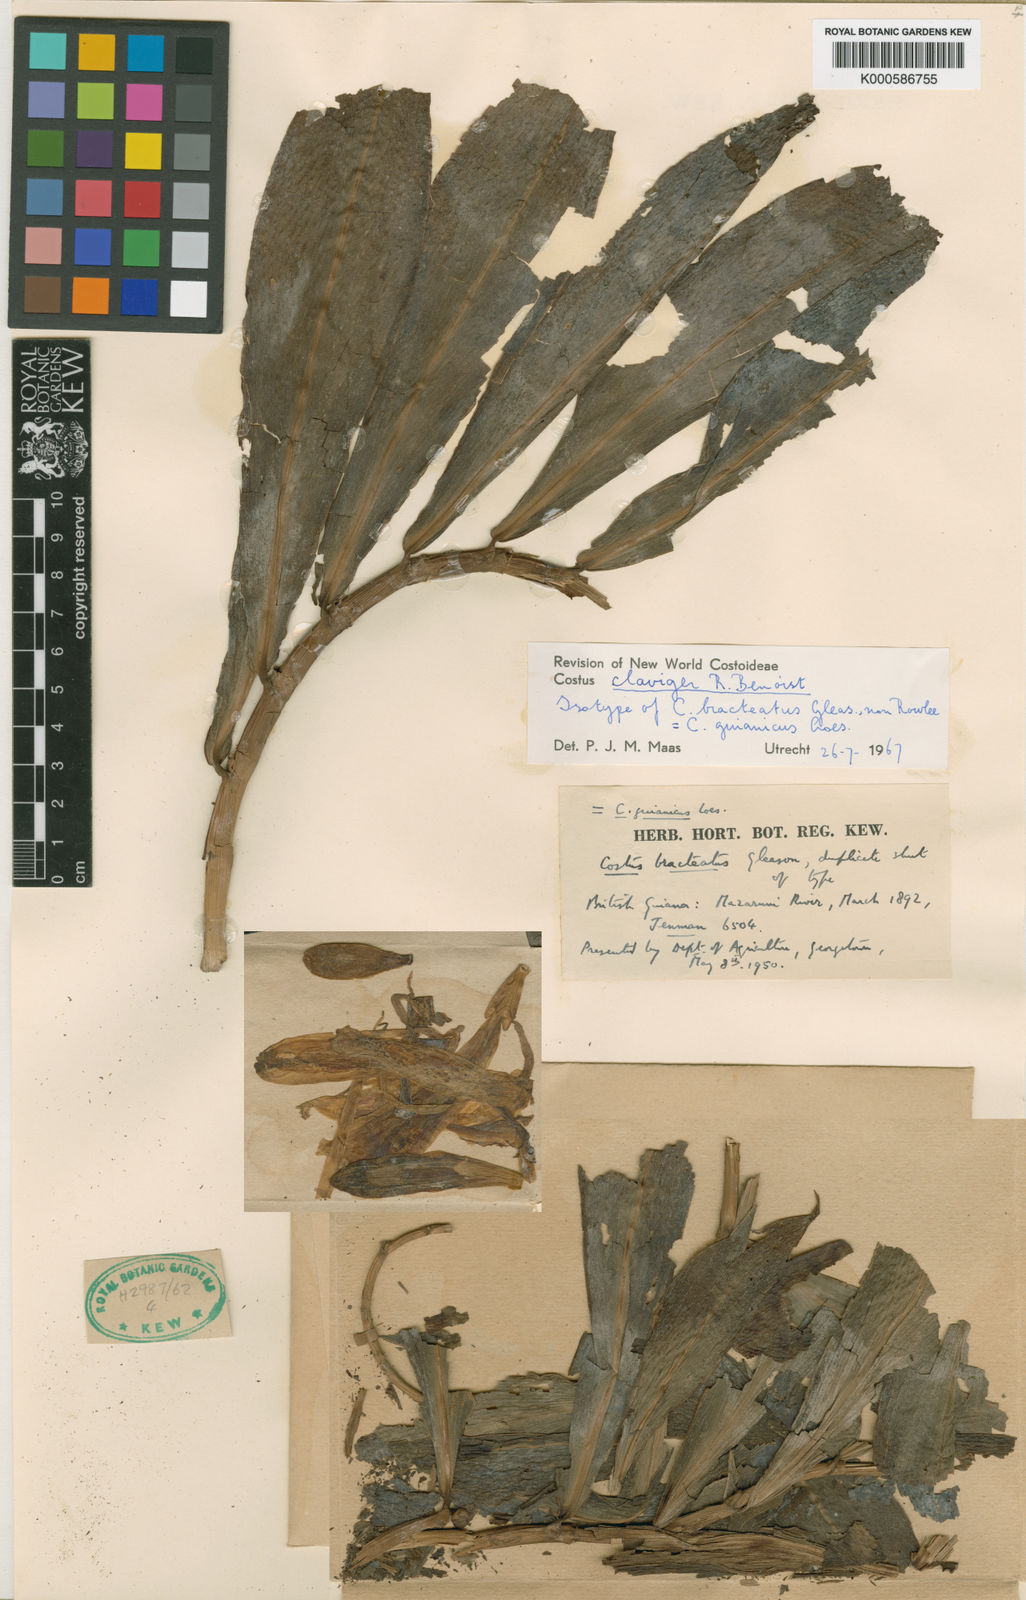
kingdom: Plantae
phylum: Tracheophyta
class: Liliopsida
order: Zingiberales
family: Costaceae
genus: Costus
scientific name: Costus claviger
